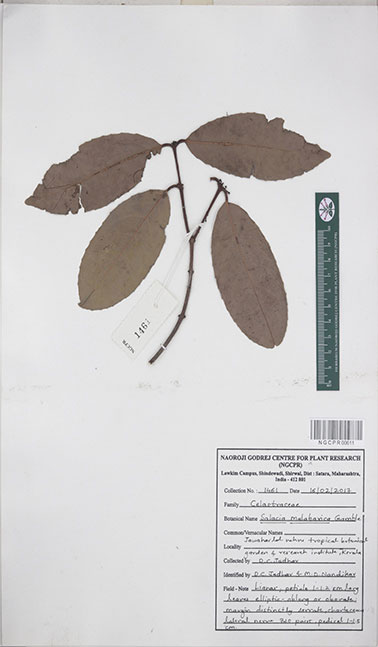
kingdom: Plantae
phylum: Tracheophyta
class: Magnoliopsida
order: Celastrales
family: Celastraceae
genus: Salacia
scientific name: Salacia malabarica
